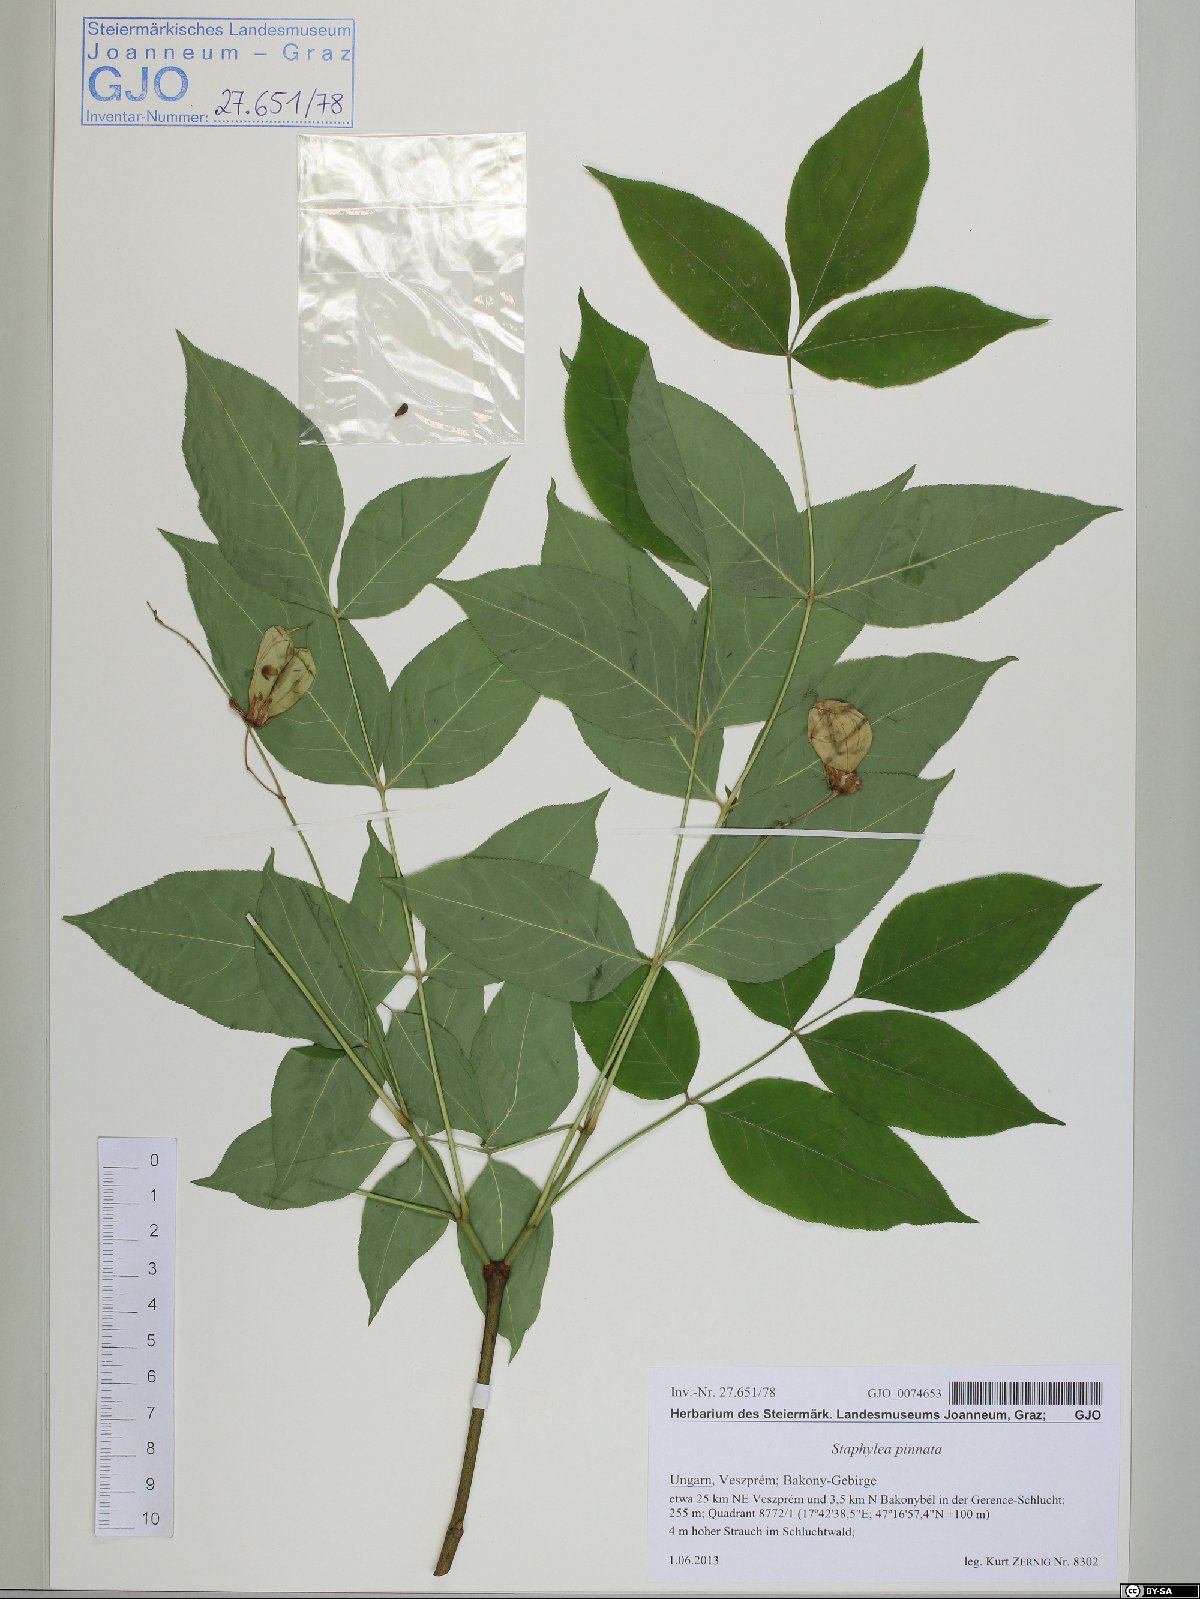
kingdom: Plantae
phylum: Tracheophyta
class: Magnoliopsida
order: Crossosomatales
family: Staphyleaceae
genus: Staphylea
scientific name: Staphylea pinnata
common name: Bladdernut
